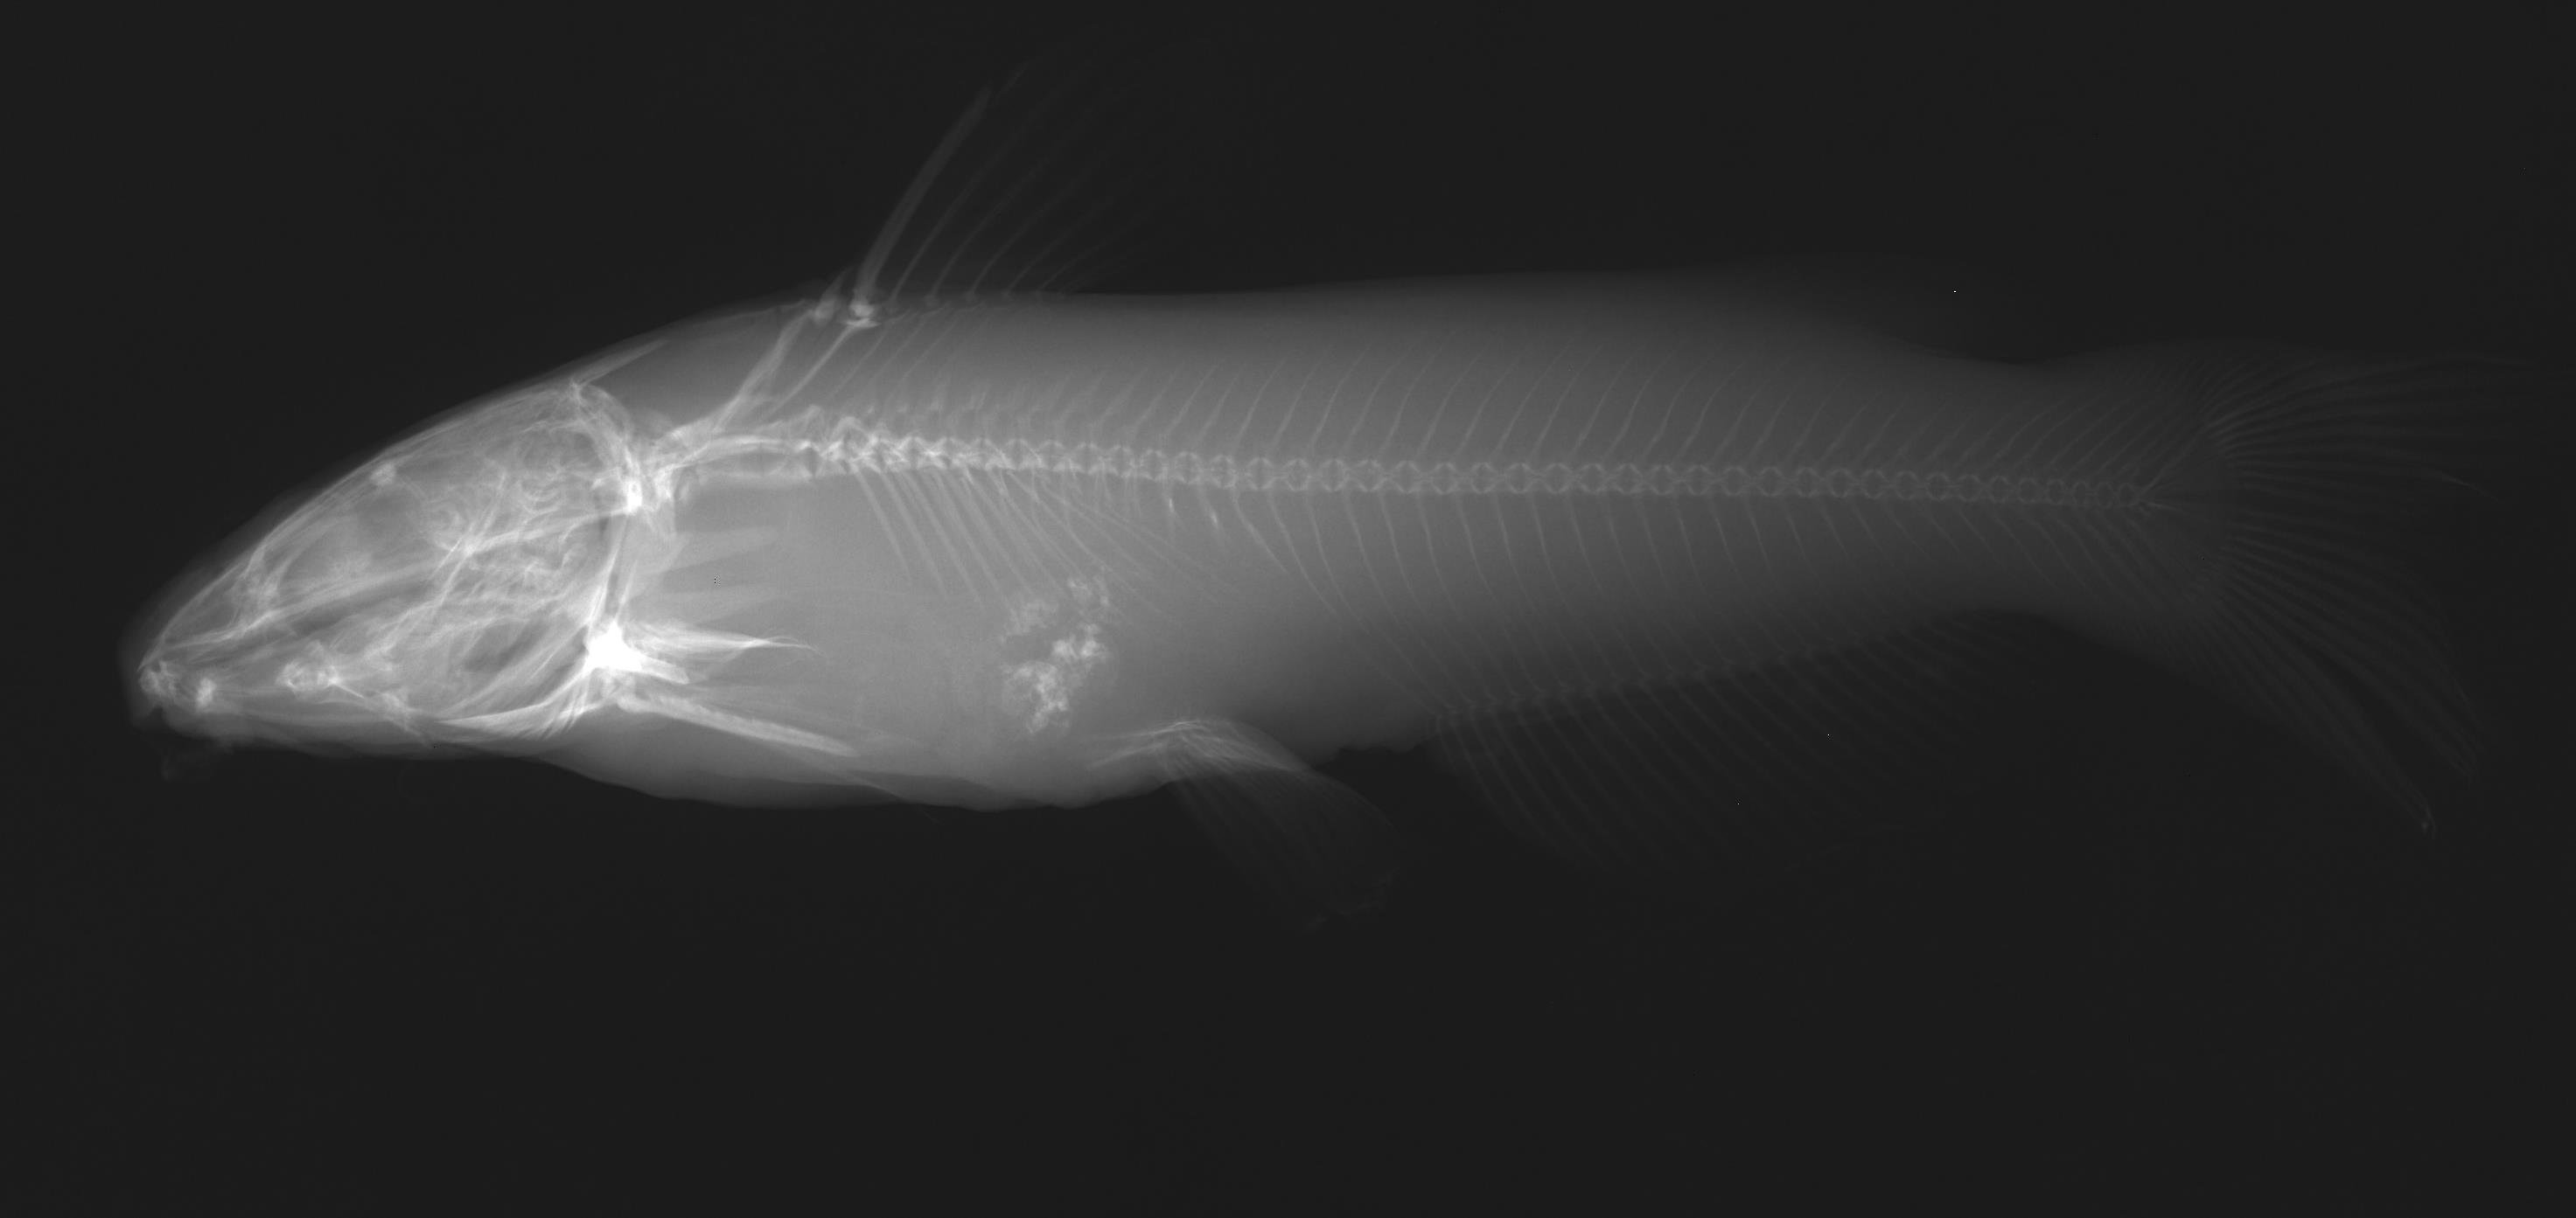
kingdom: Animalia
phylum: Chordata
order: Siluriformes
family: Ictaluridae
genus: Ictalurus
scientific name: Ictalurus lupus
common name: Headwater catfish
